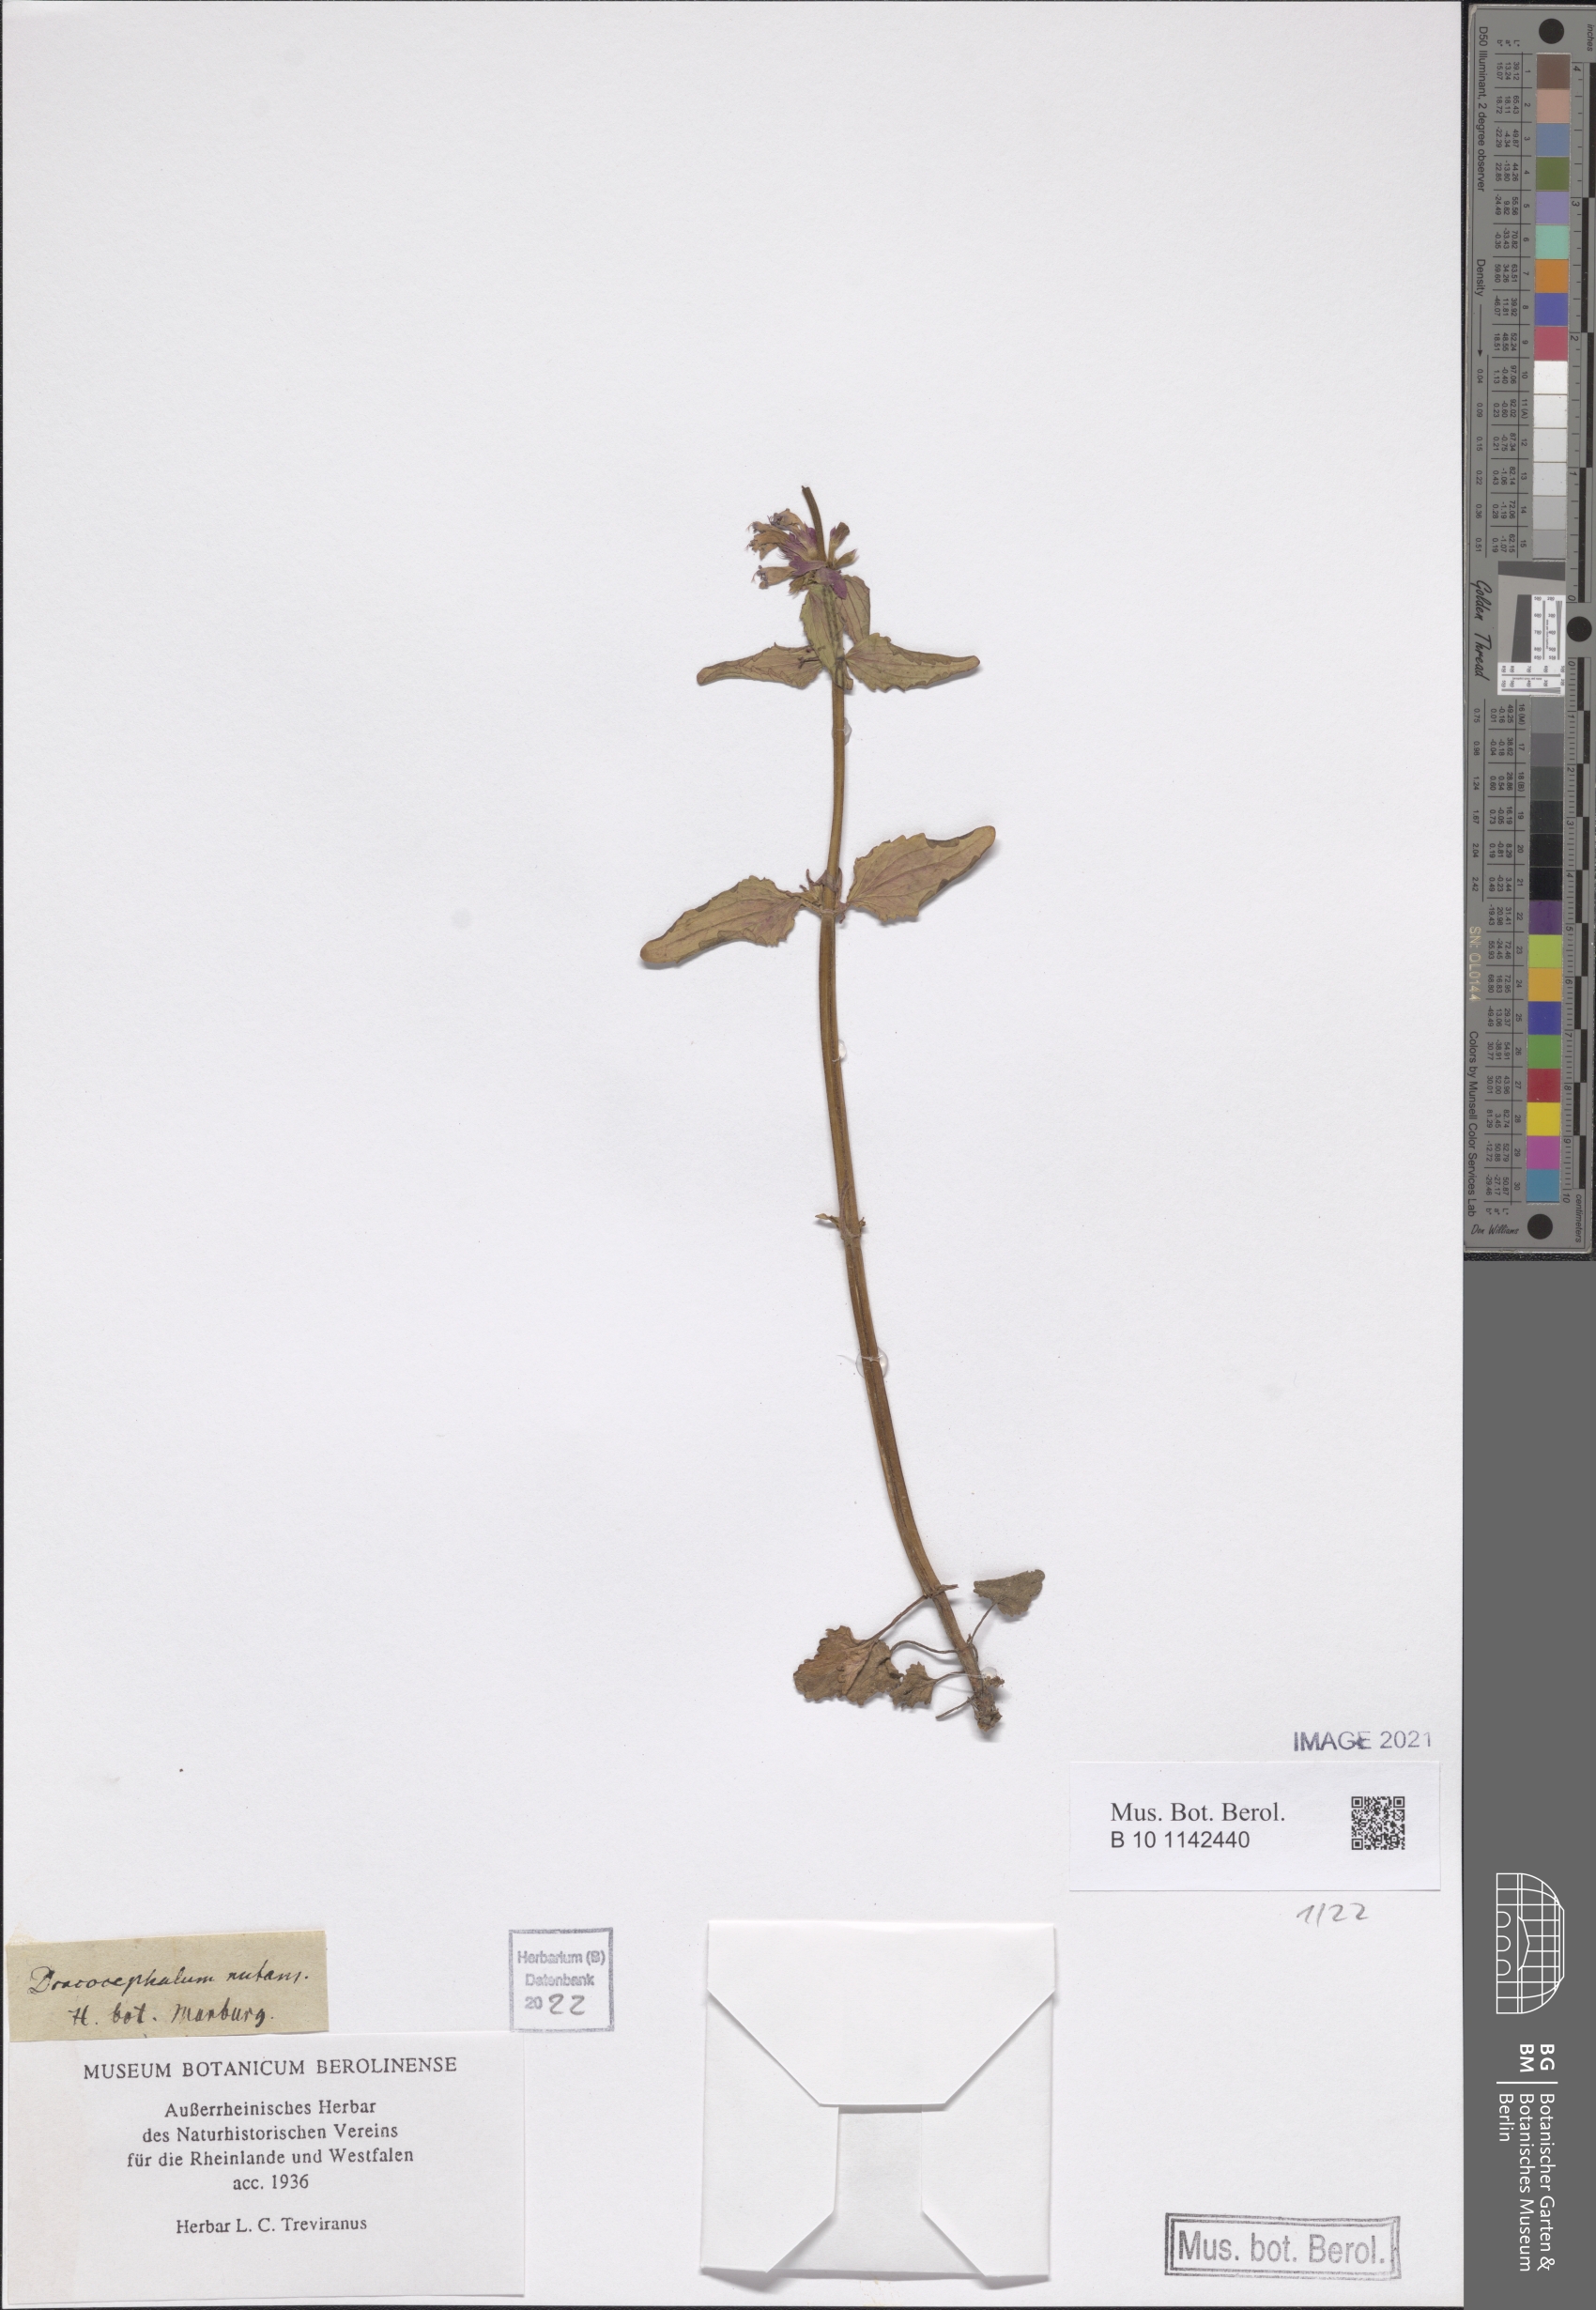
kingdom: Plantae
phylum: Tracheophyta
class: Magnoliopsida
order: Lamiales
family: Lamiaceae
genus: Dracocephalum
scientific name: Dracocephalum nutans
